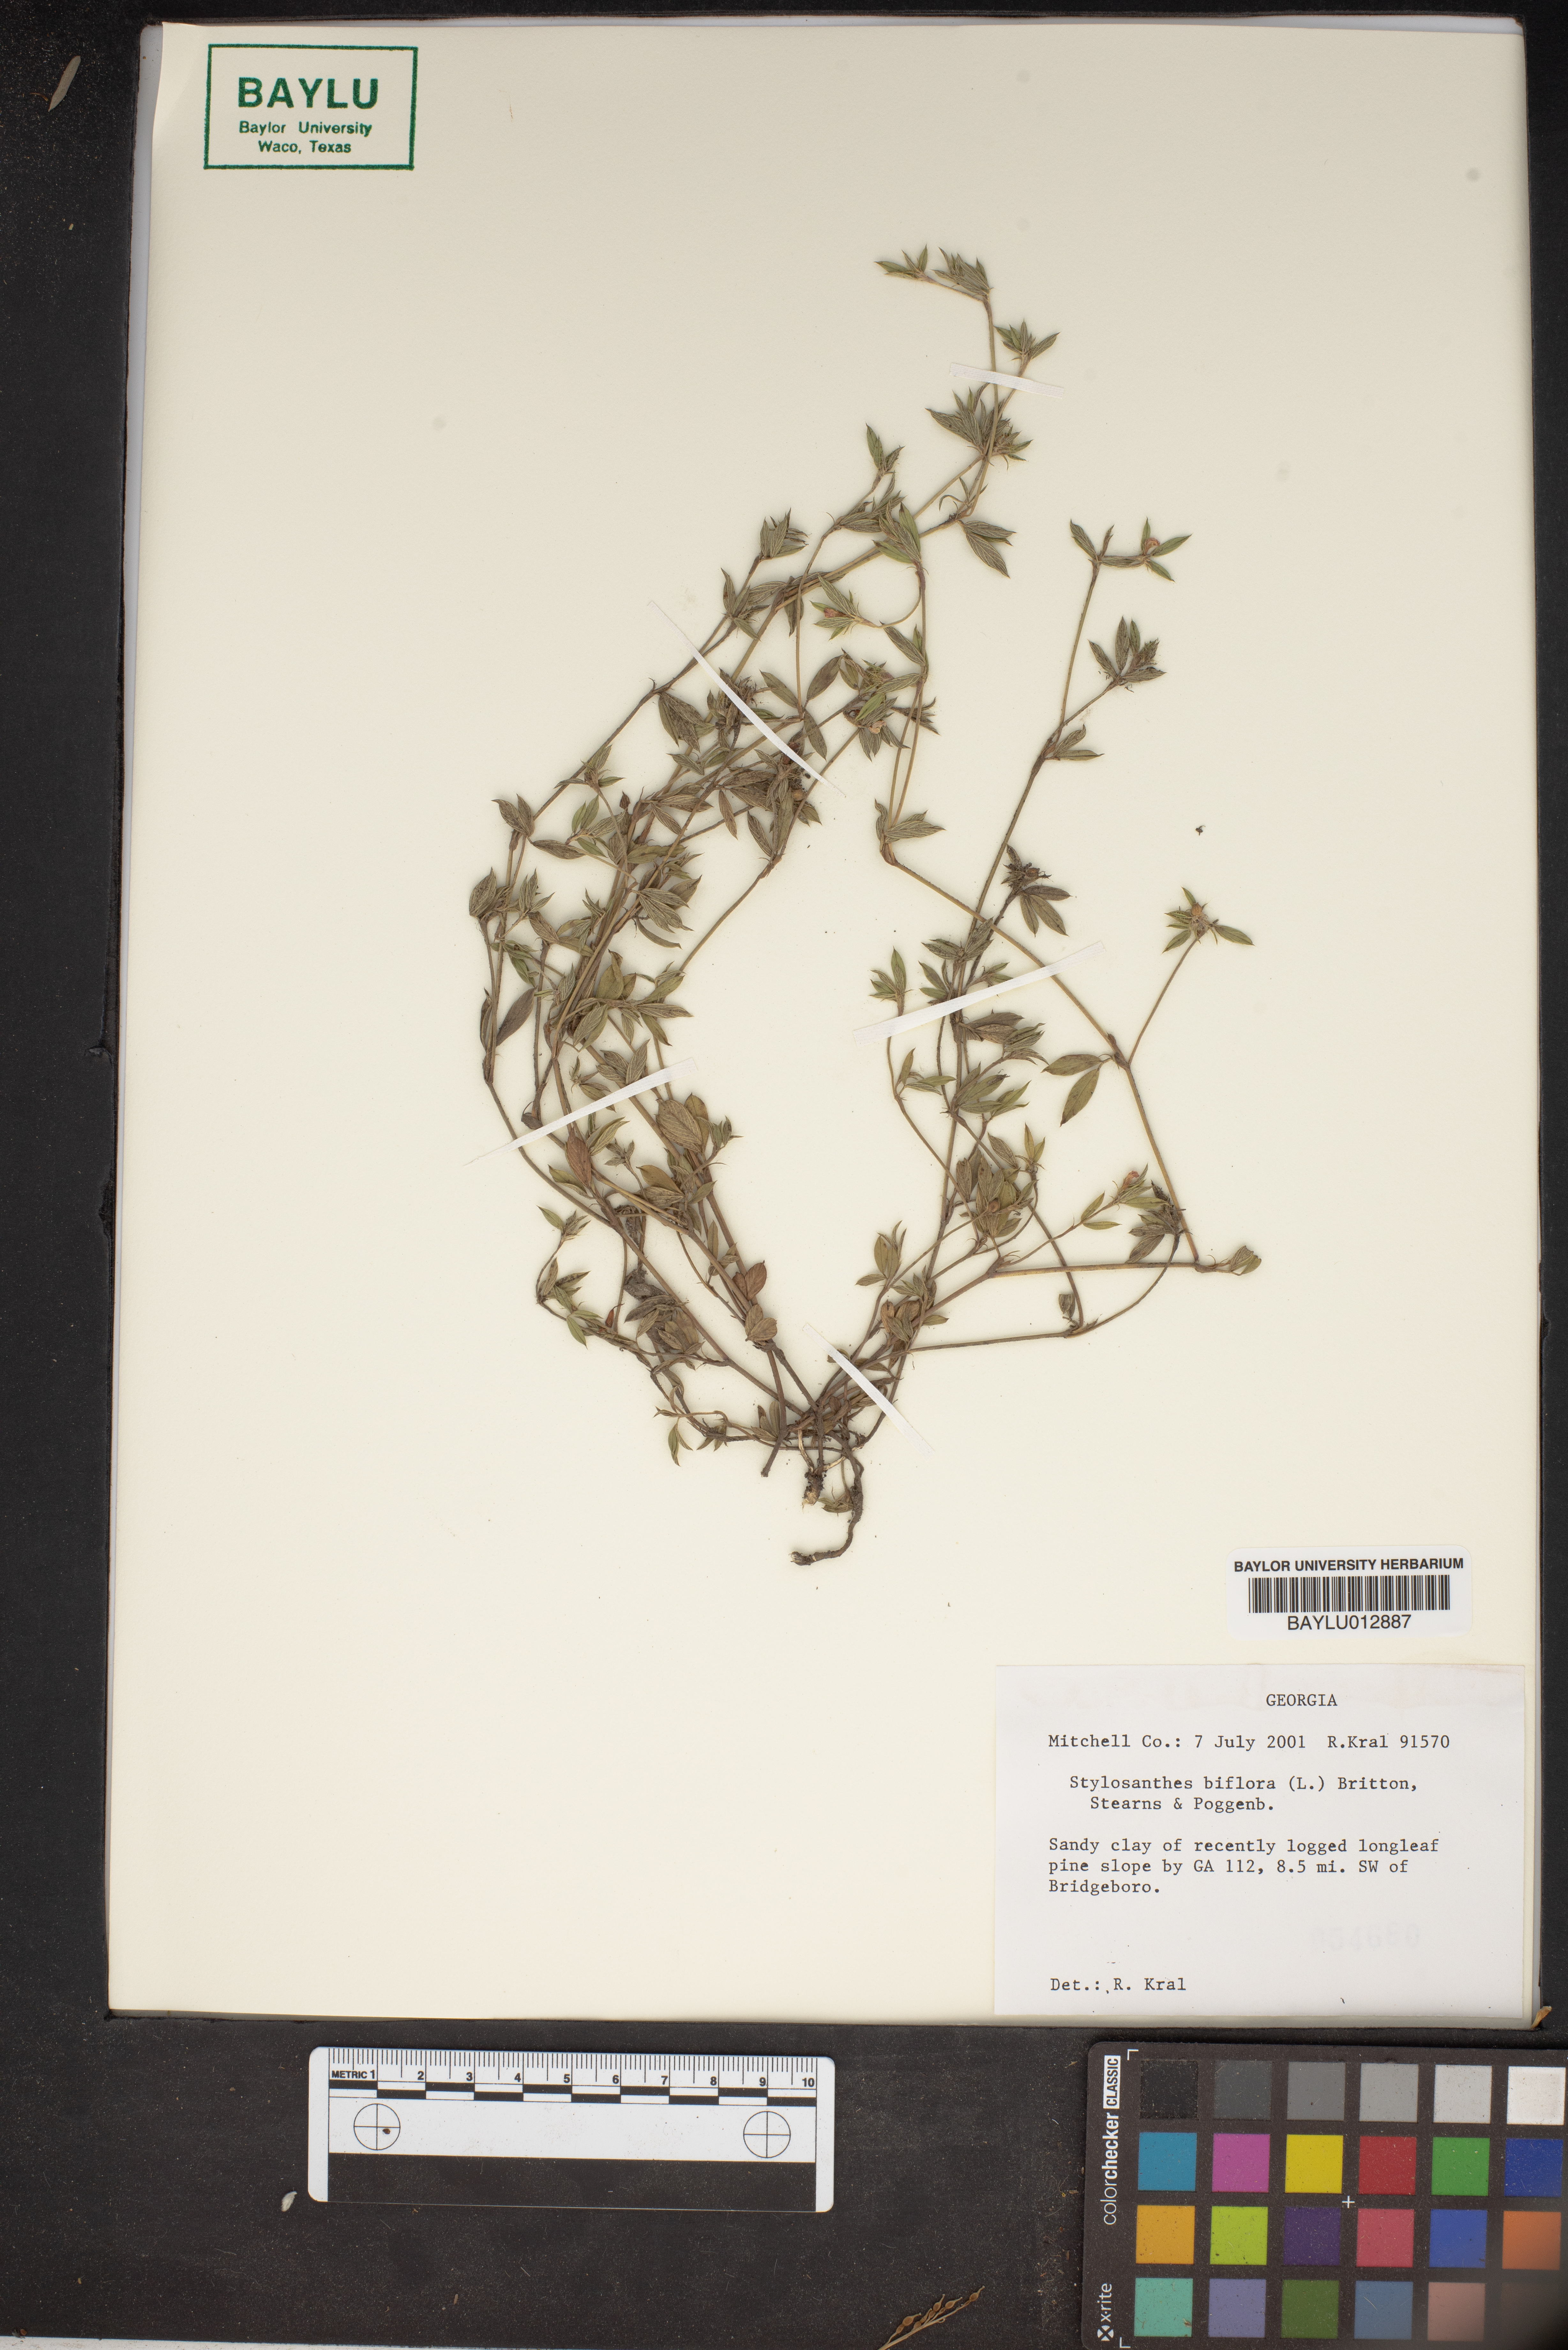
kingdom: Plantae
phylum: Tracheophyta
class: Magnoliopsida
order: Fabales
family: Fabaceae
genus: Stylosanthes
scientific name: Stylosanthes biflora
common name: Two-flower pencil-flower
